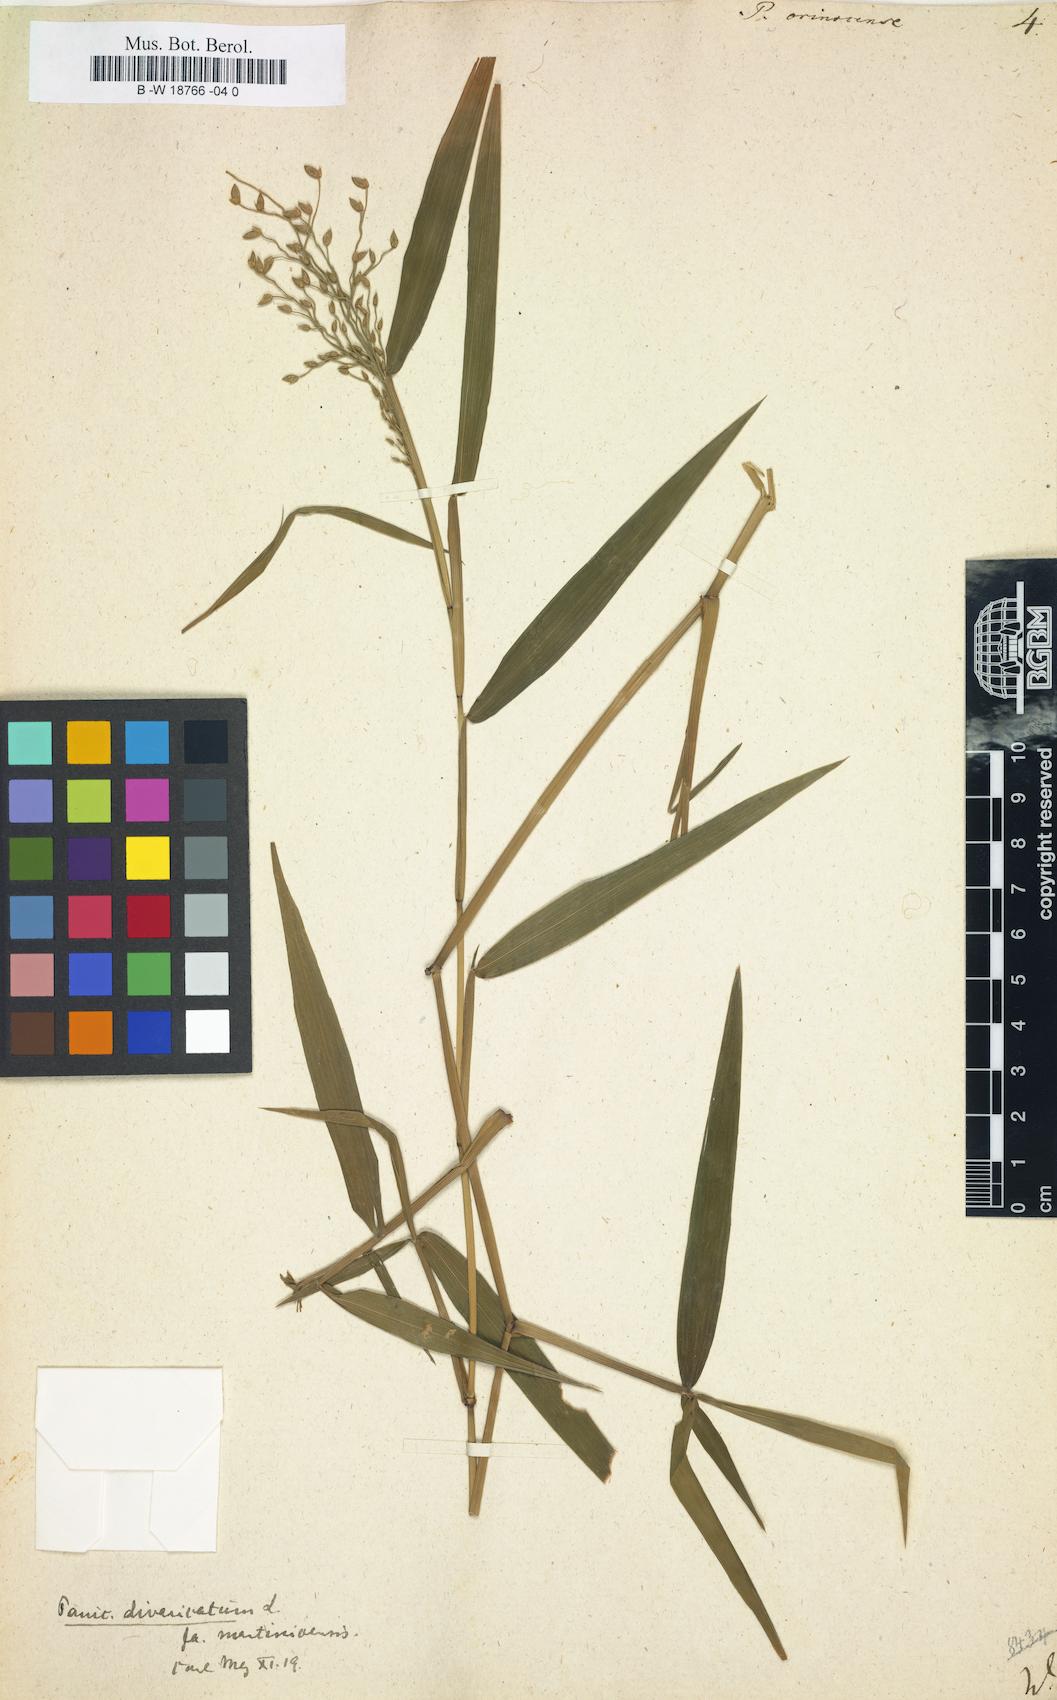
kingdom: Plantae
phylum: Tracheophyta
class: Liliopsida
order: Poales
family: Poaceae
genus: Lasiacis
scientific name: Lasiacis maculata
